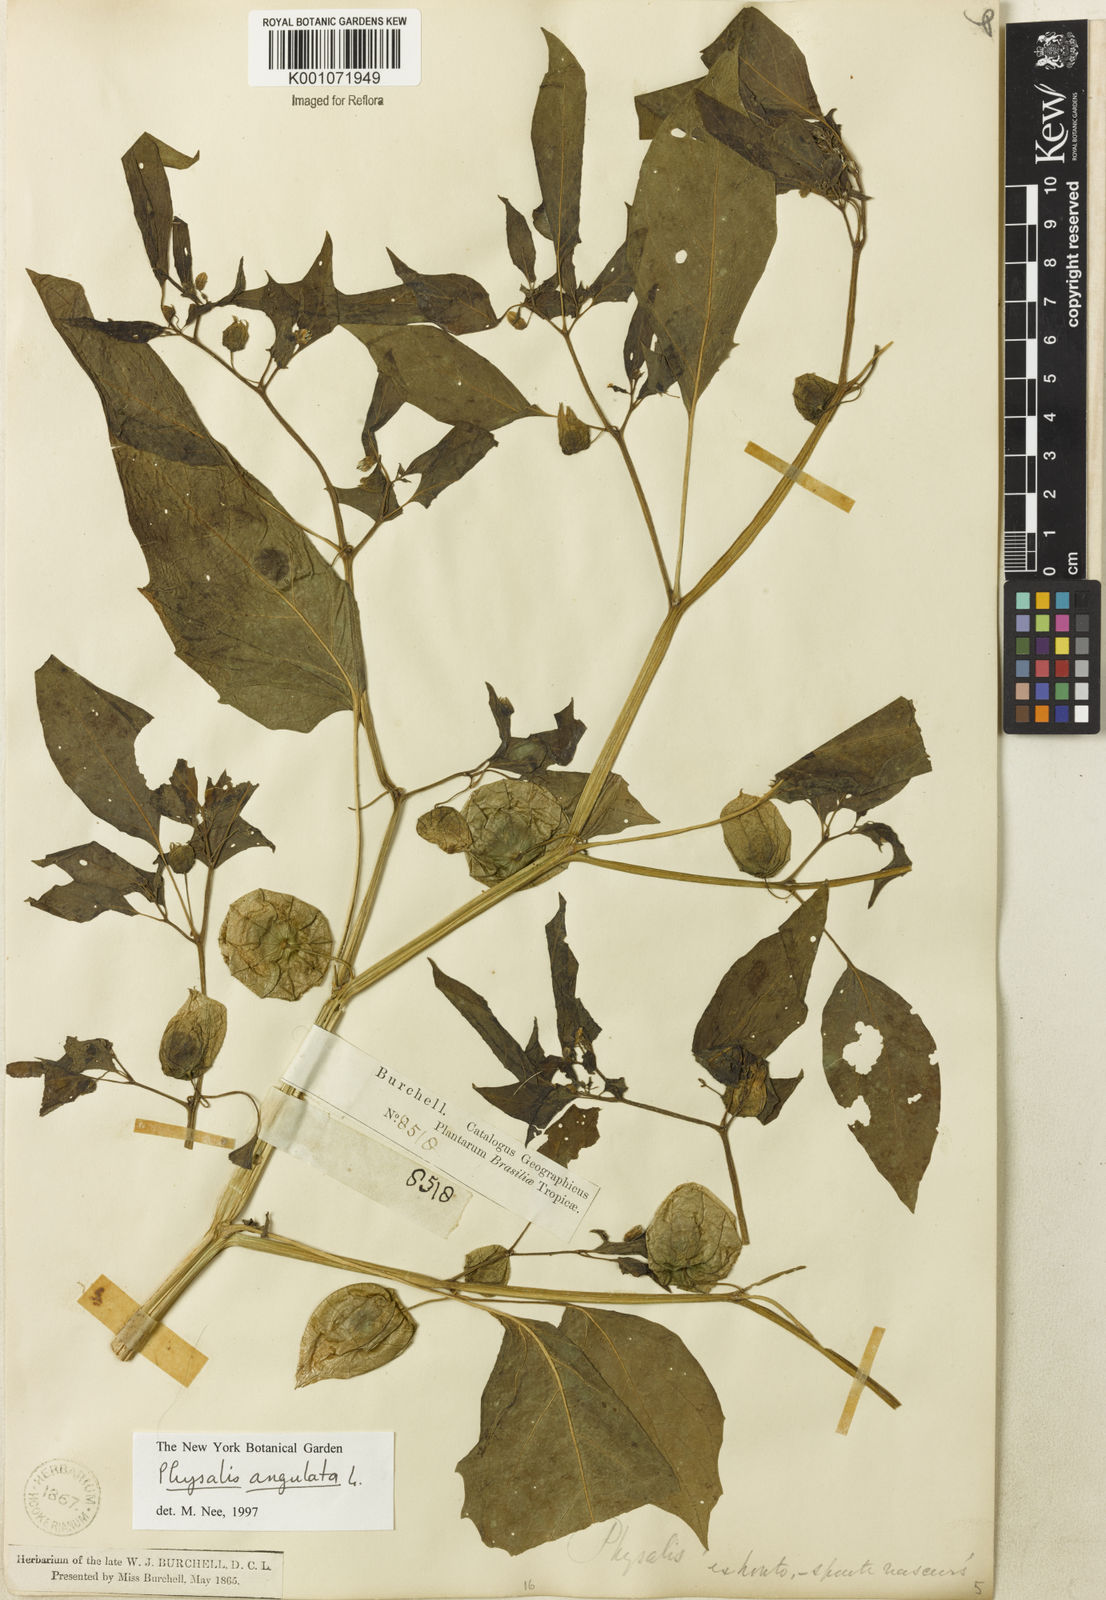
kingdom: Plantae
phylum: Tracheophyta
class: Magnoliopsida
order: Solanales
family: Solanaceae
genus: Physalis
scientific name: Physalis angulata
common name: Angular winter-cherry
